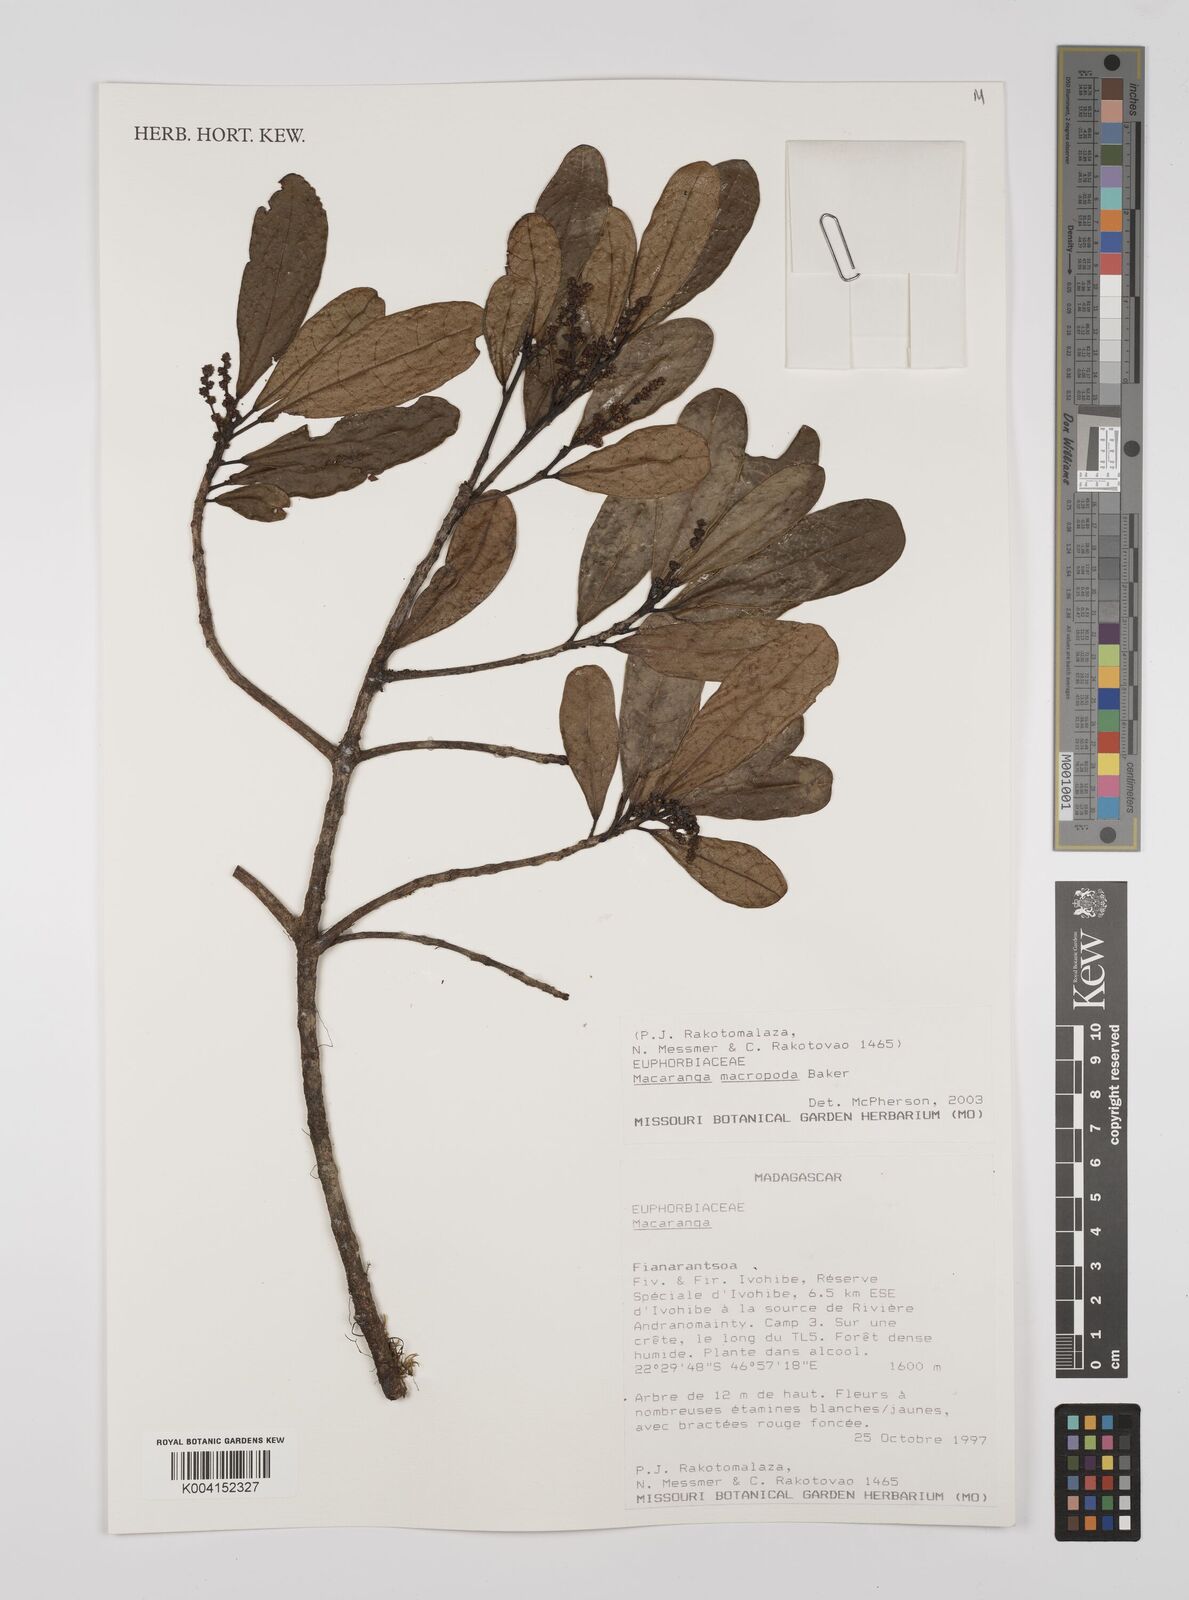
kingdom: Plantae
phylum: Tracheophyta
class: Magnoliopsida
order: Malpighiales
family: Euphorbiaceae
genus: Macaranga
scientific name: Macaranga macropoda
